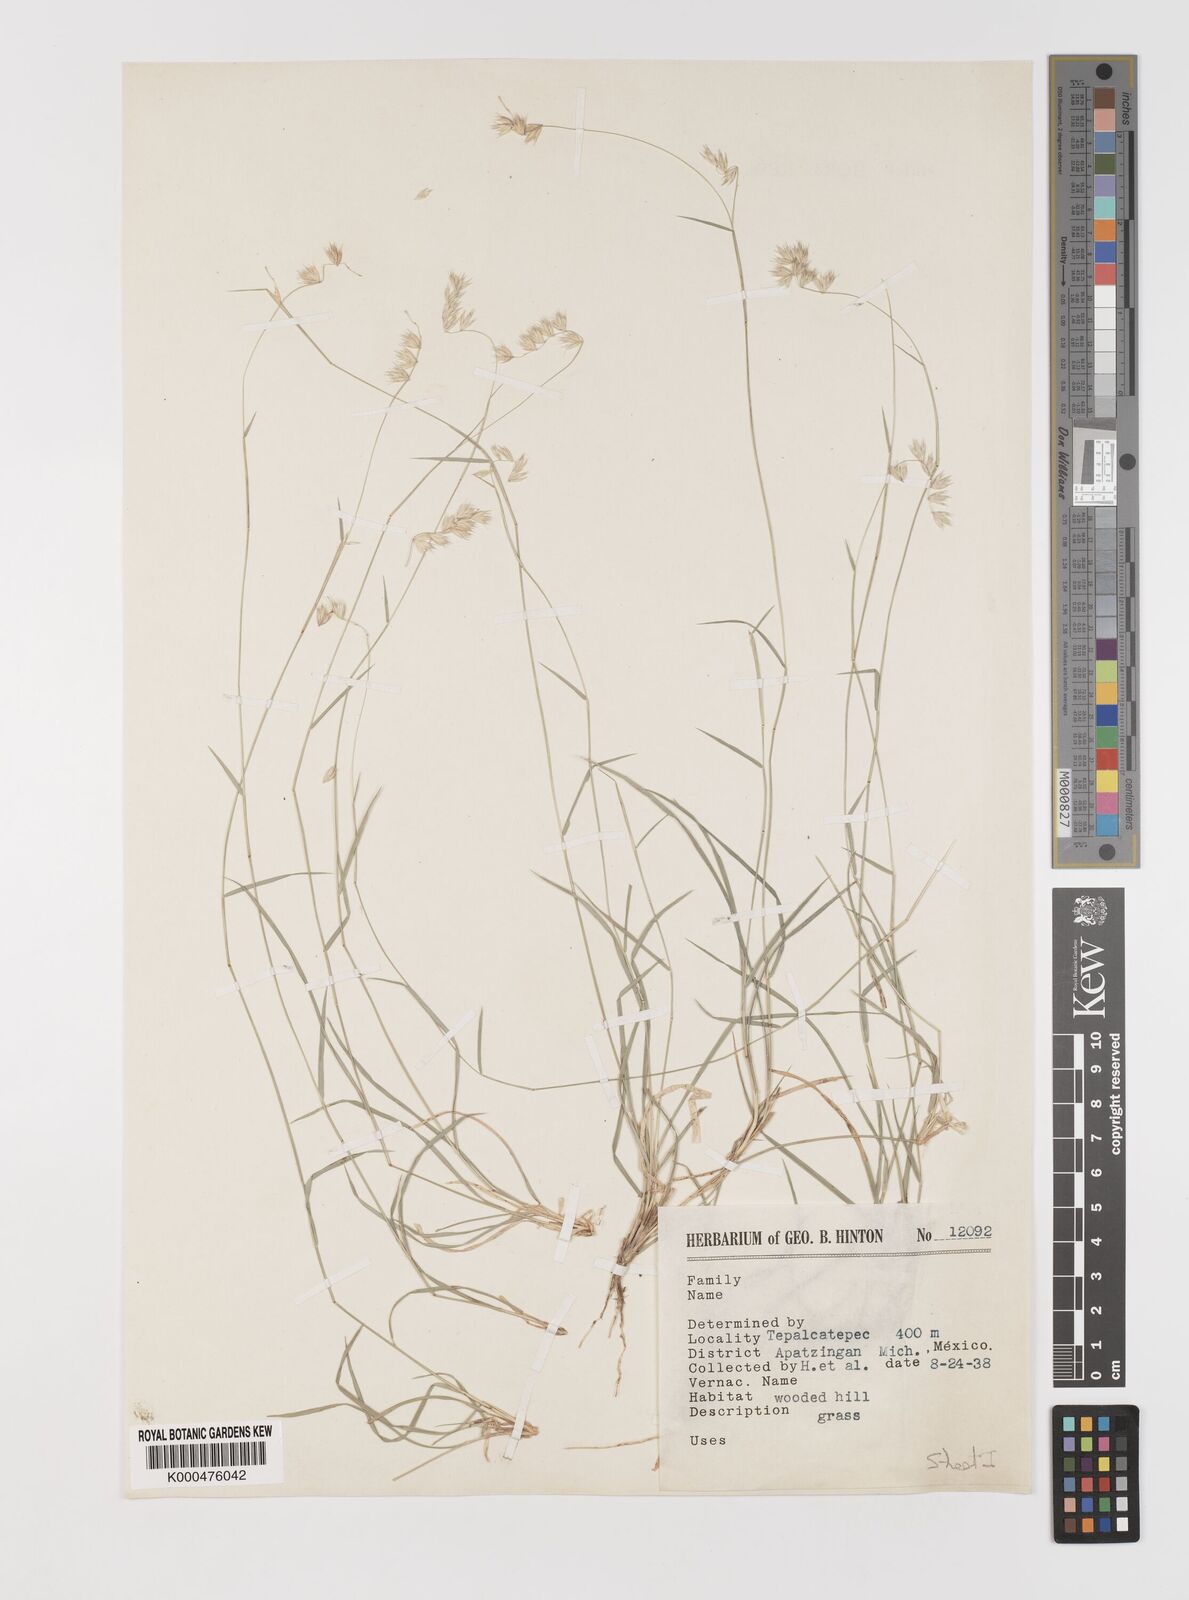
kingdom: Plantae
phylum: Tracheophyta
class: Liliopsida
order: Poales
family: Poaceae
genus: Bouteloua
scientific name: Bouteloua
